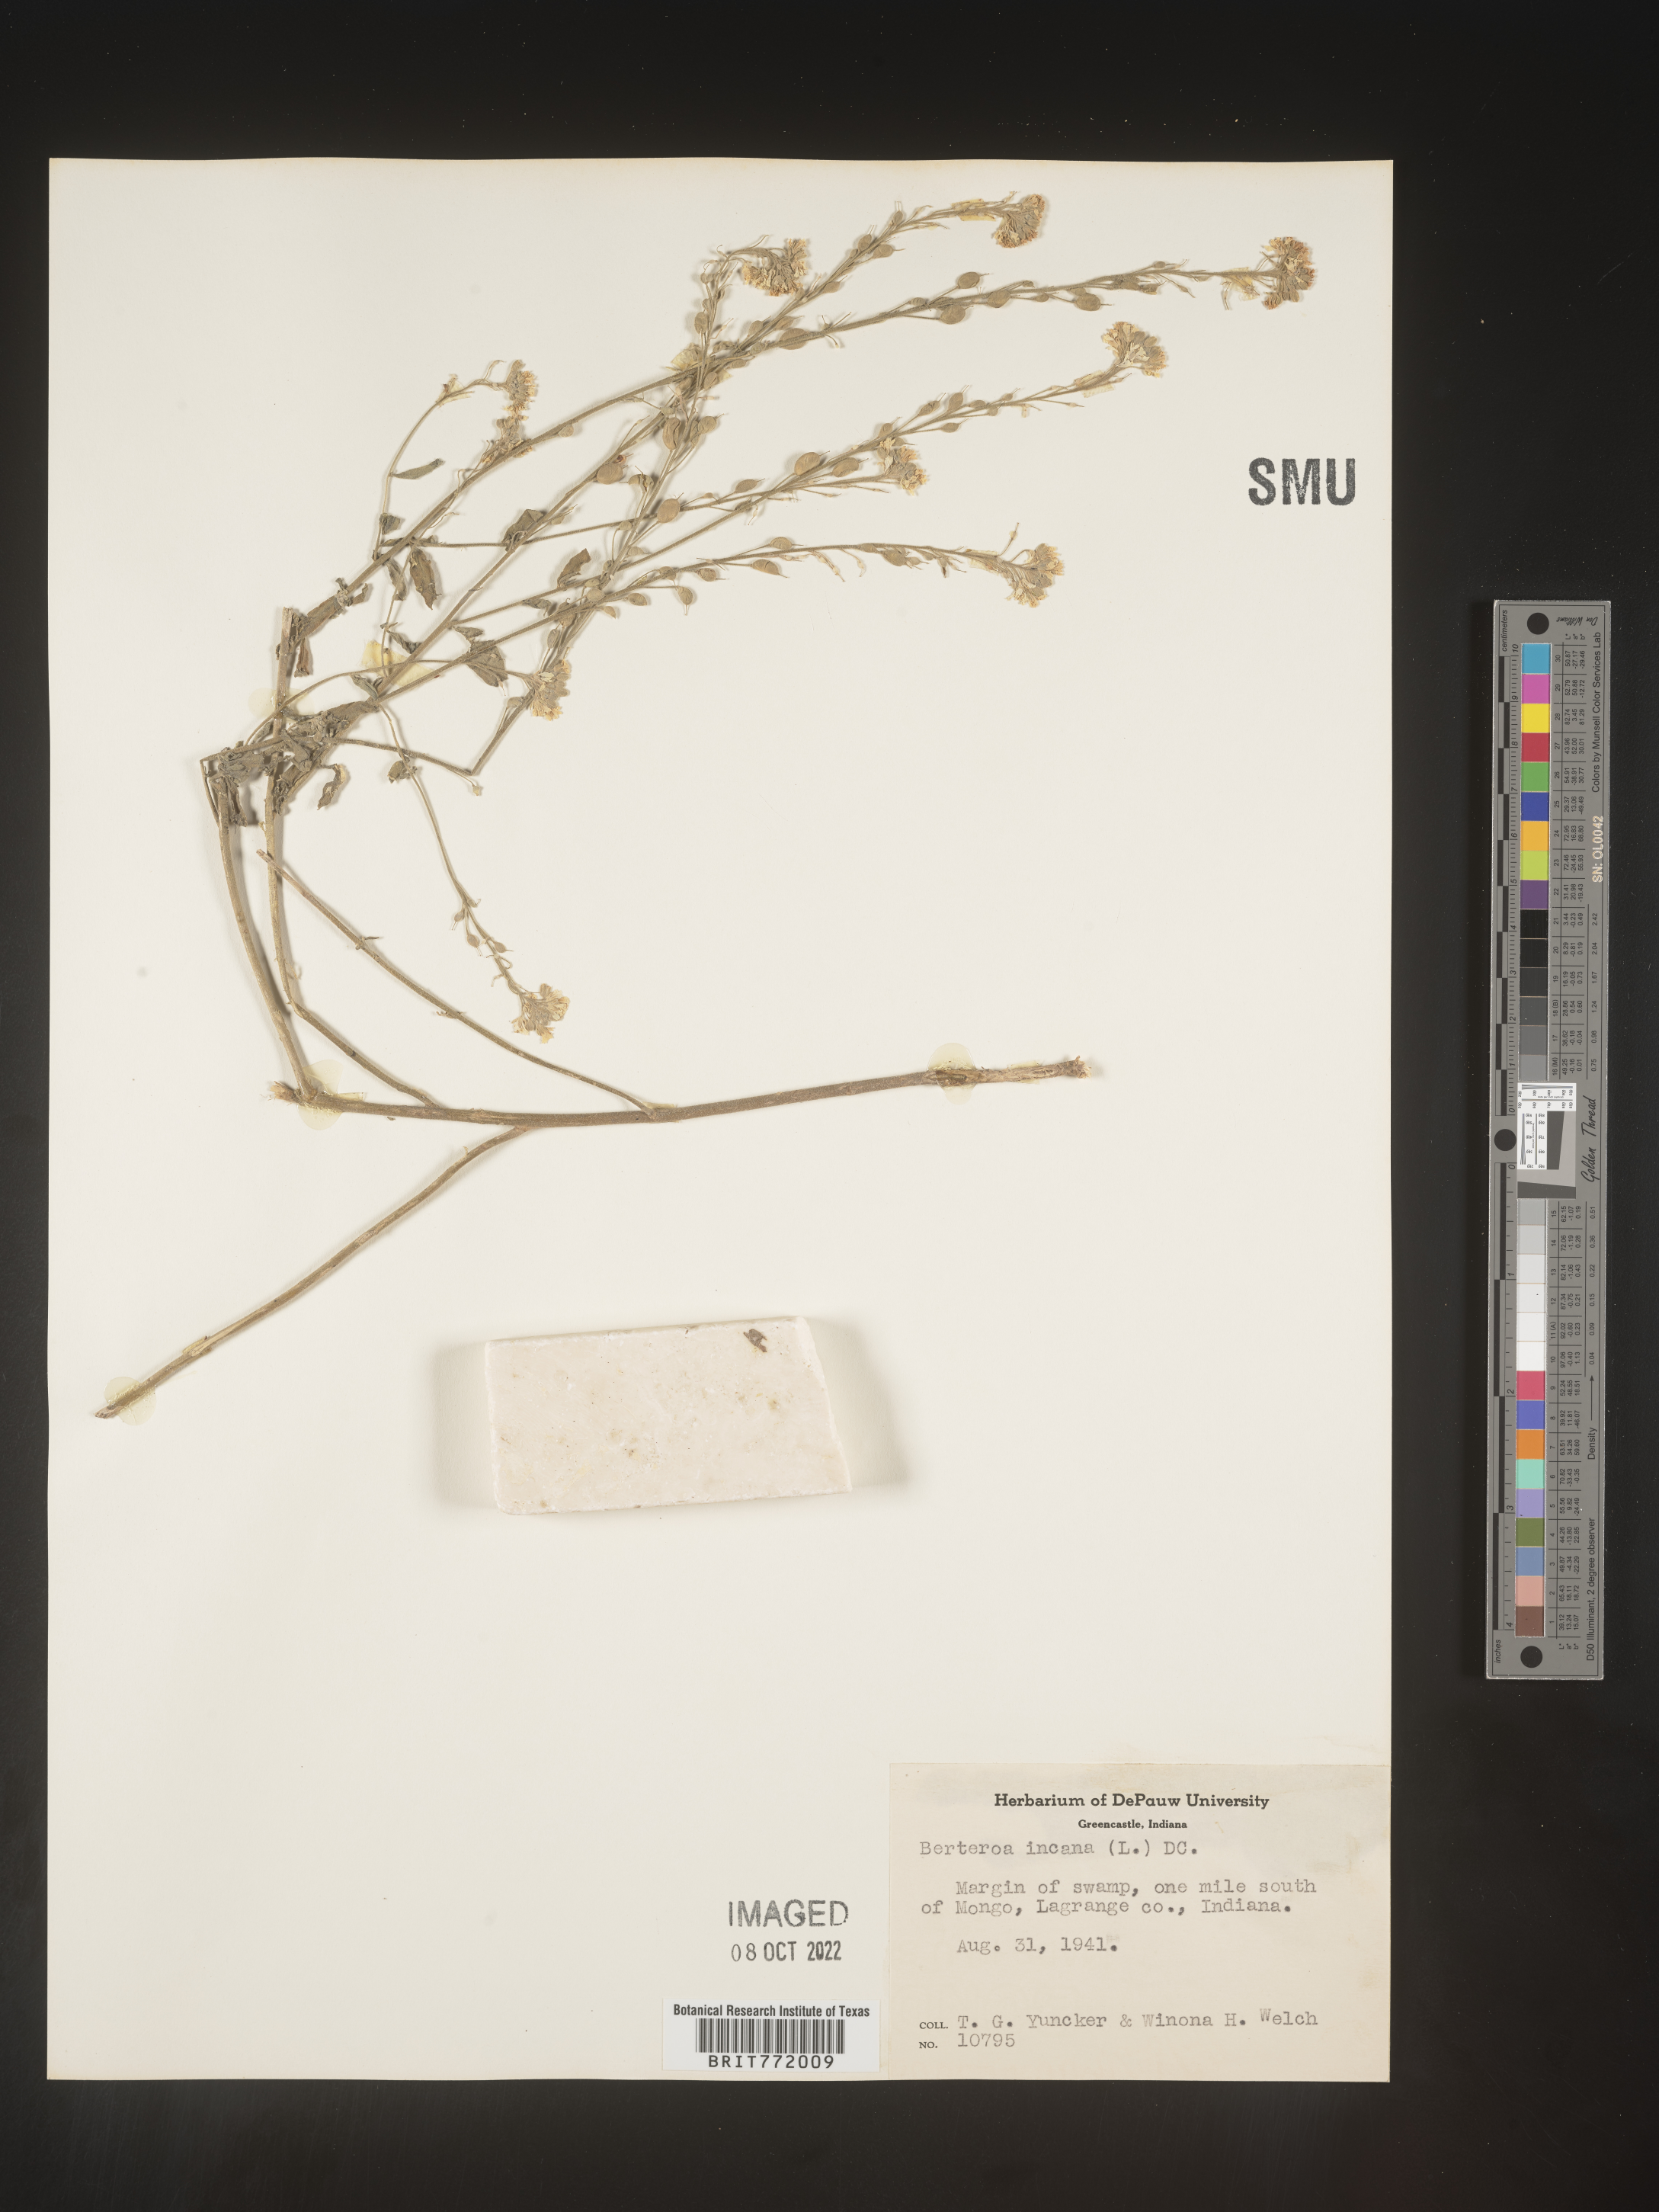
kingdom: Plantae
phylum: Tracheophyta
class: Magnoliopsida
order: Brassicales
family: Brassicaceae
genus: Berteroa
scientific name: Berteroa incana
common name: Hoary alison
